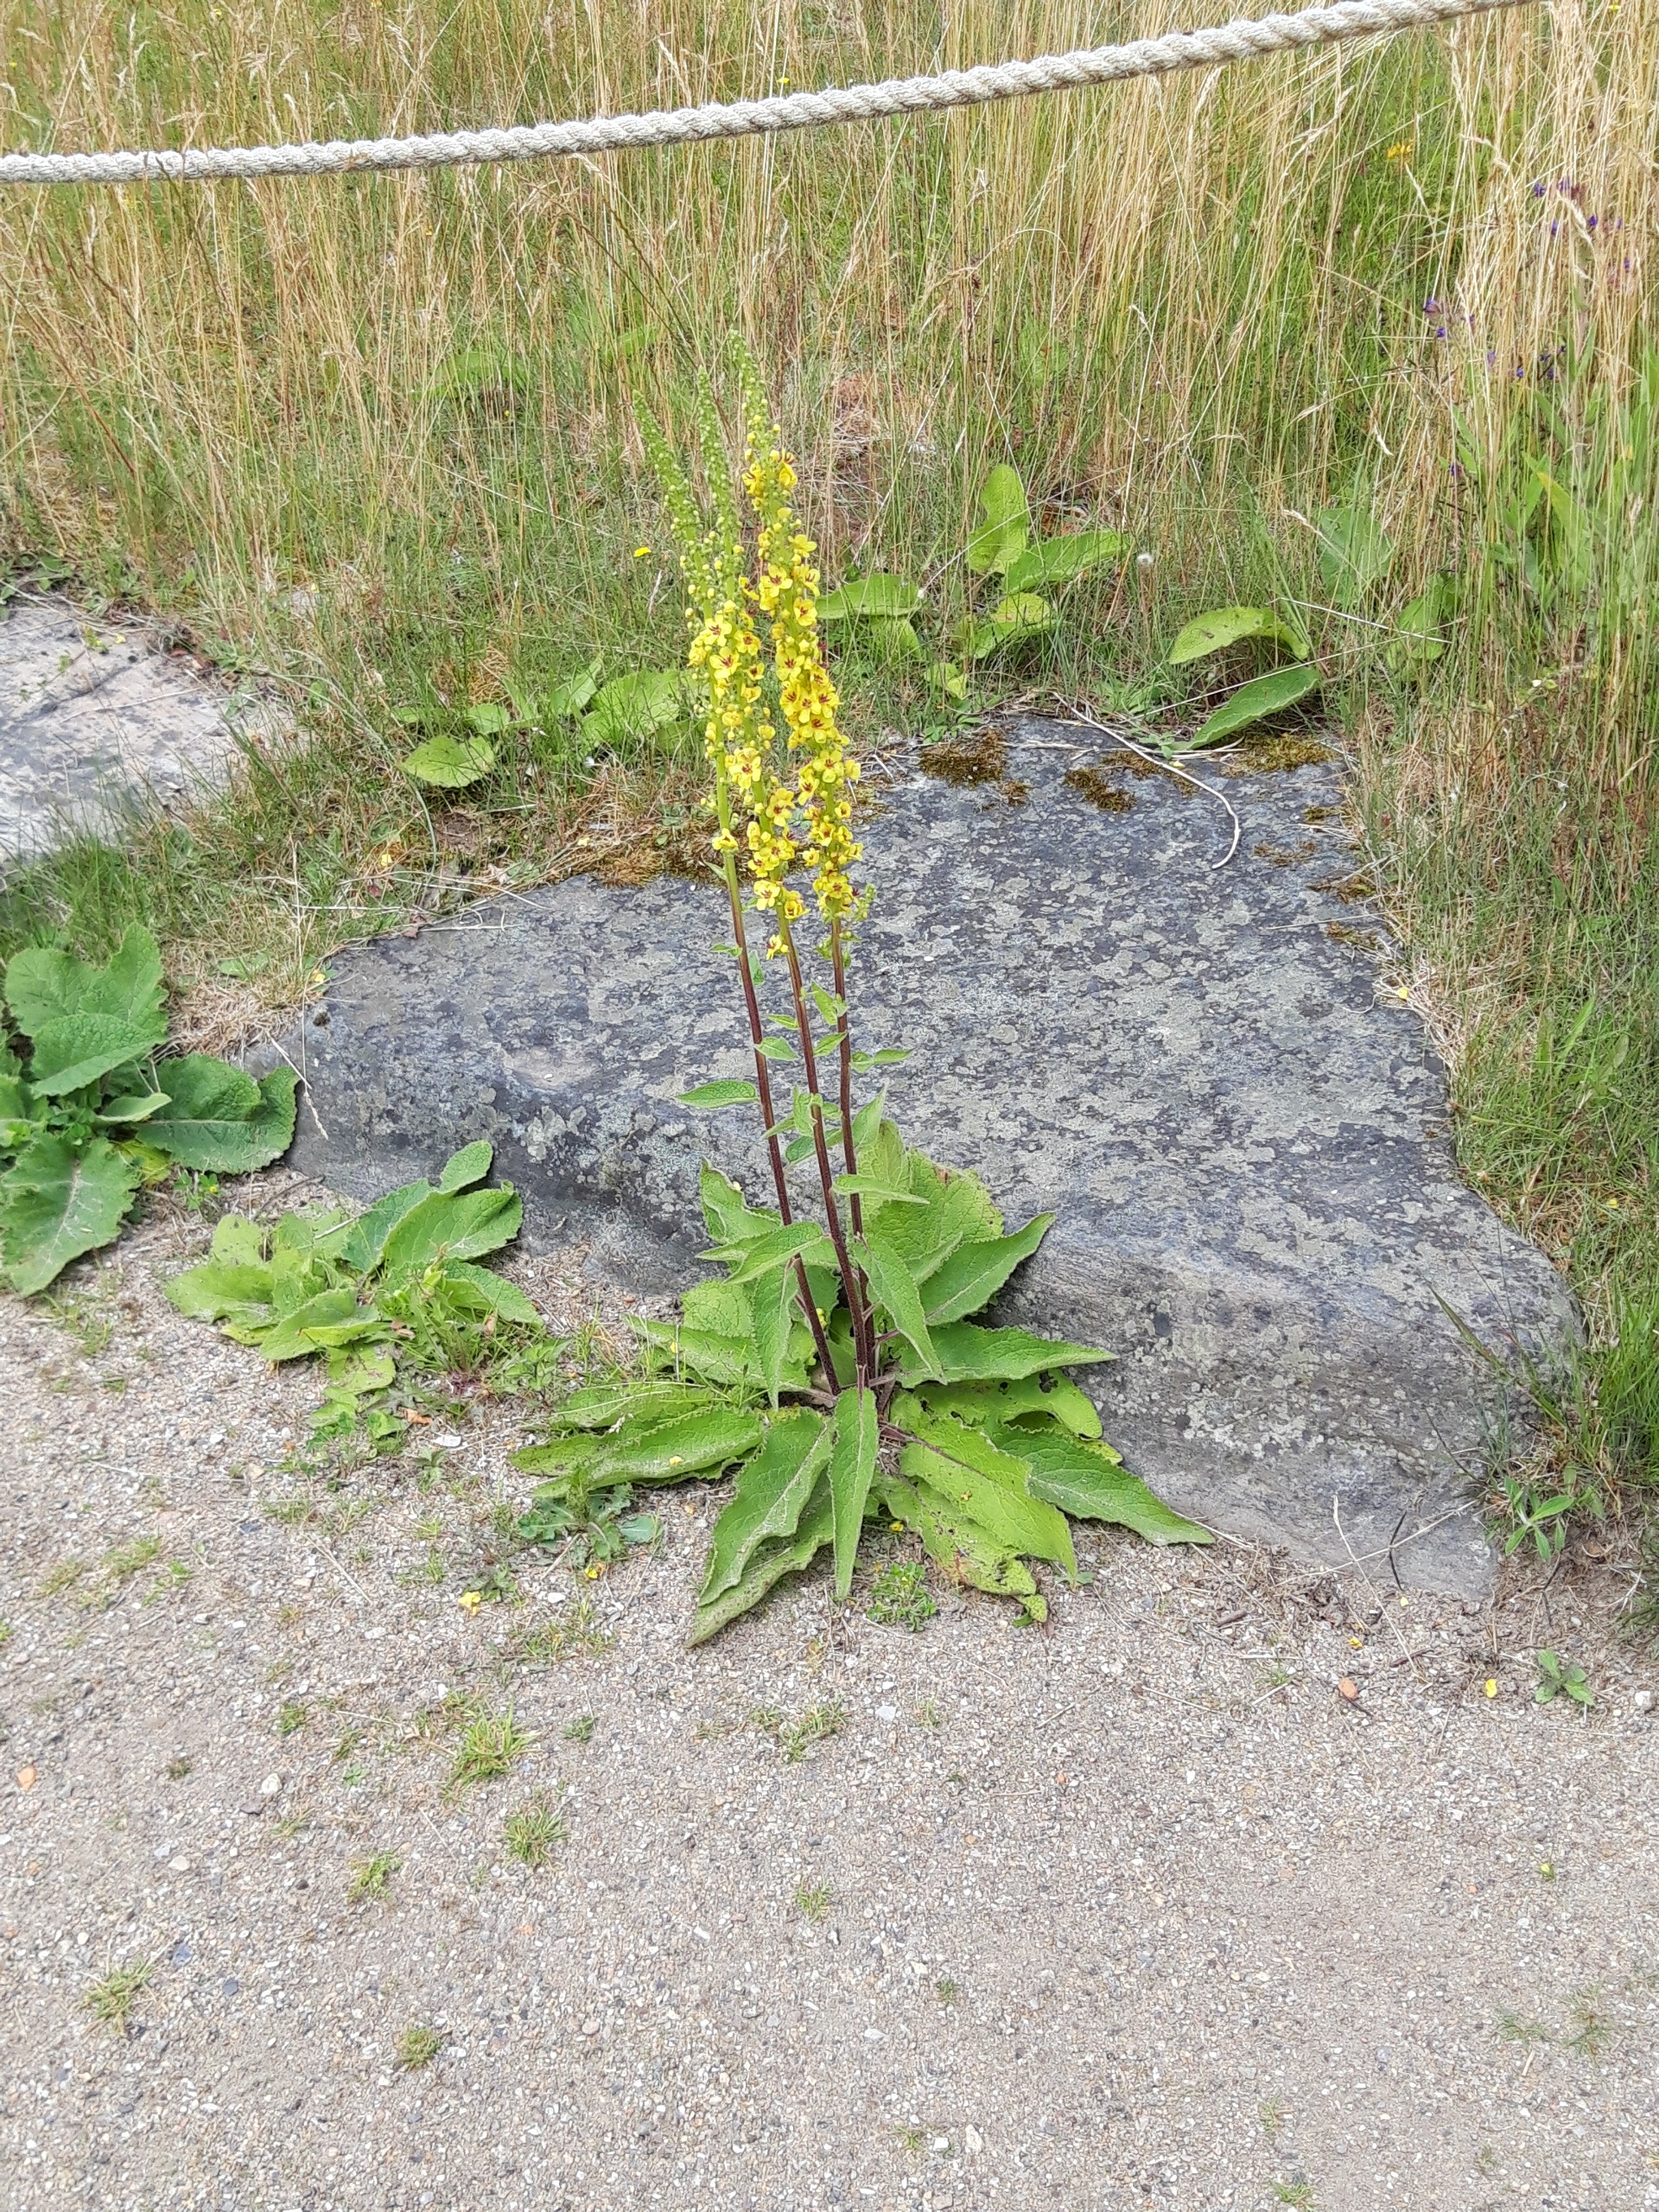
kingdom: Plantae
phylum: Tracheophyta
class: Magnoliopsida
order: Lamiales
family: Scrophulariaceae
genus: Verbascum
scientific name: Verbascum nigrum
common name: Mørk kongelys
